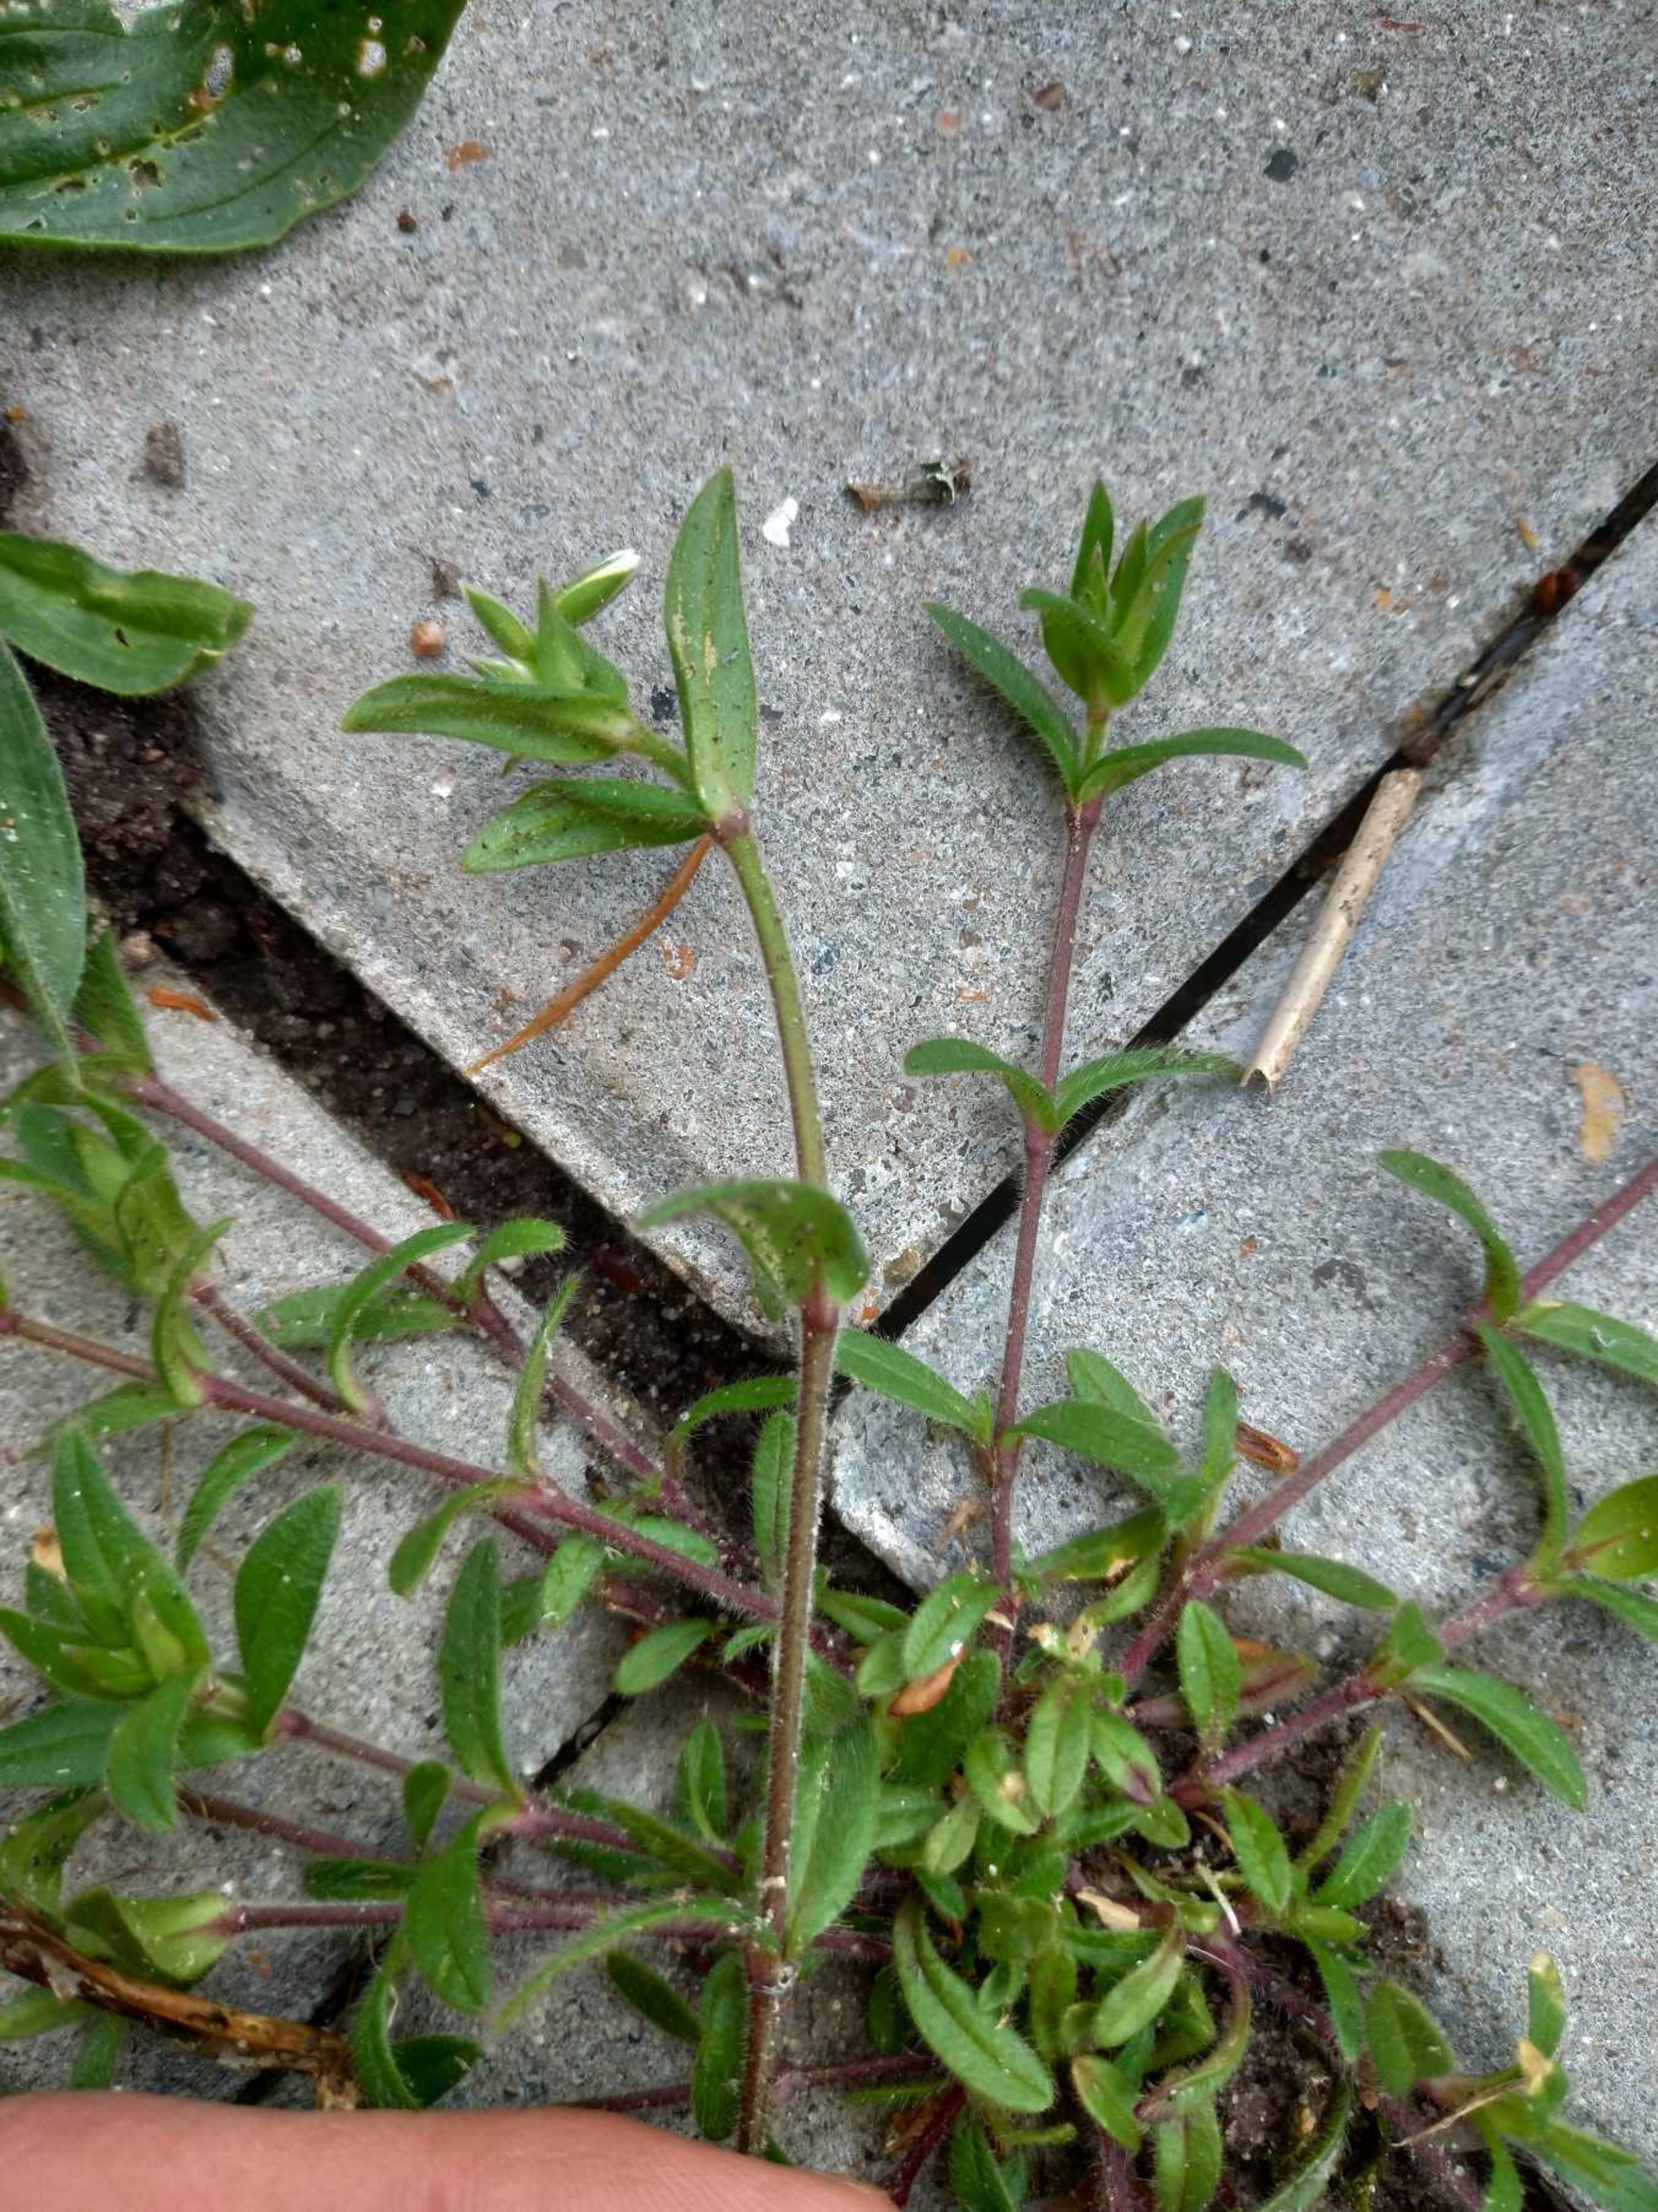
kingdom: Plantae
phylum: Tracheophyta
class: Magnoliopsida
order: Caryophyllales
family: Caryophyllaceae
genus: Cerastium
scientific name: Cerastium fontanum
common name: Almindelig hønsetarm
